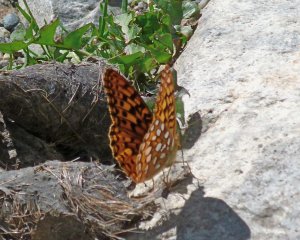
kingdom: Animalia
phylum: Arthropoda
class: Insecta
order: Lepidoptera
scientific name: Lepidoptera
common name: Butterflies
